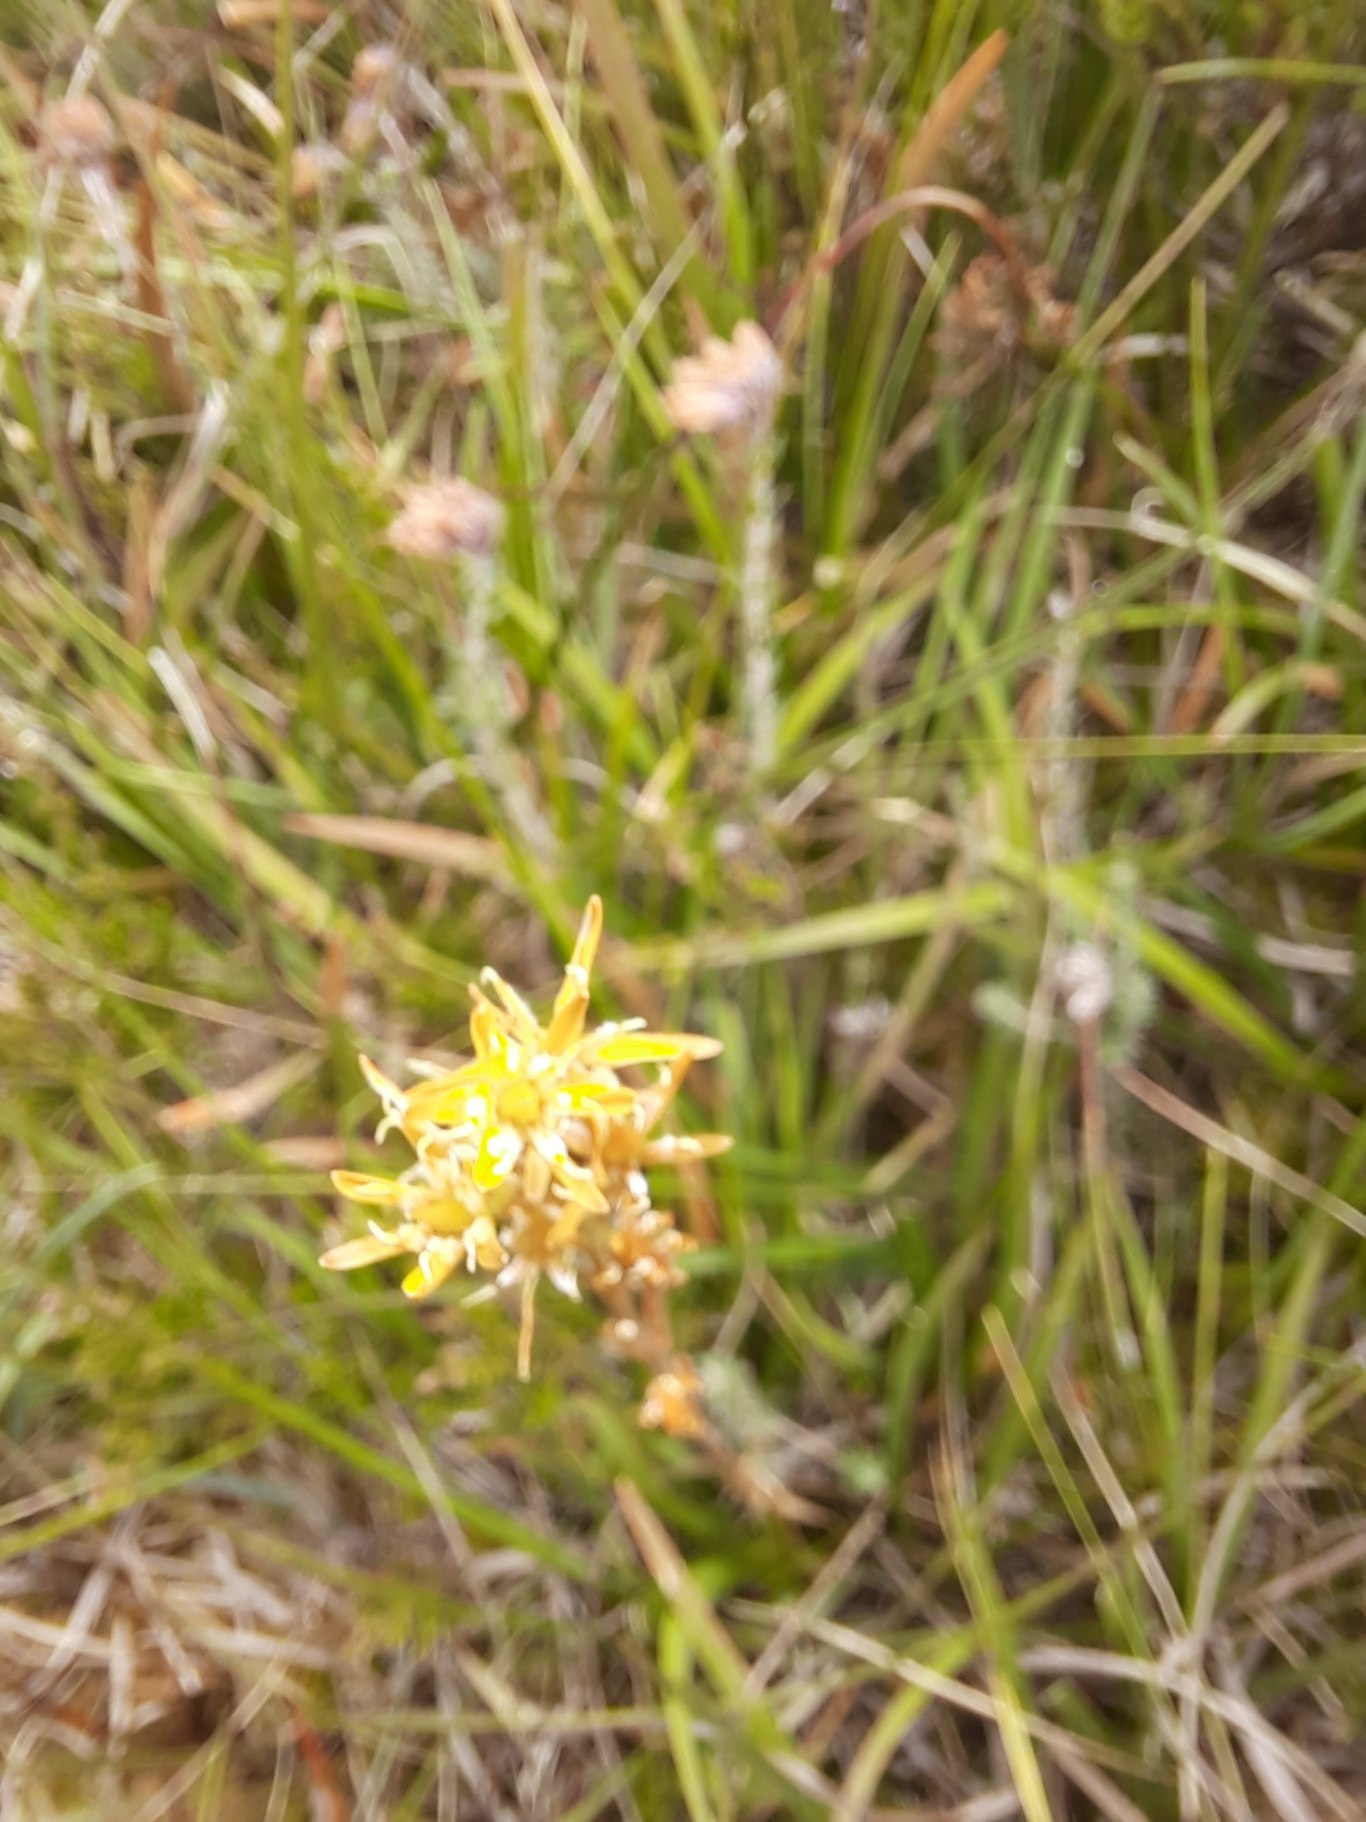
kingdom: Plantae
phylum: Tracheophyta
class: Liliopsida
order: Dioscoreales
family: Nartheciaceae
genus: Narthecium
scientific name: Narthecium ossifragum
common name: Benbræk
